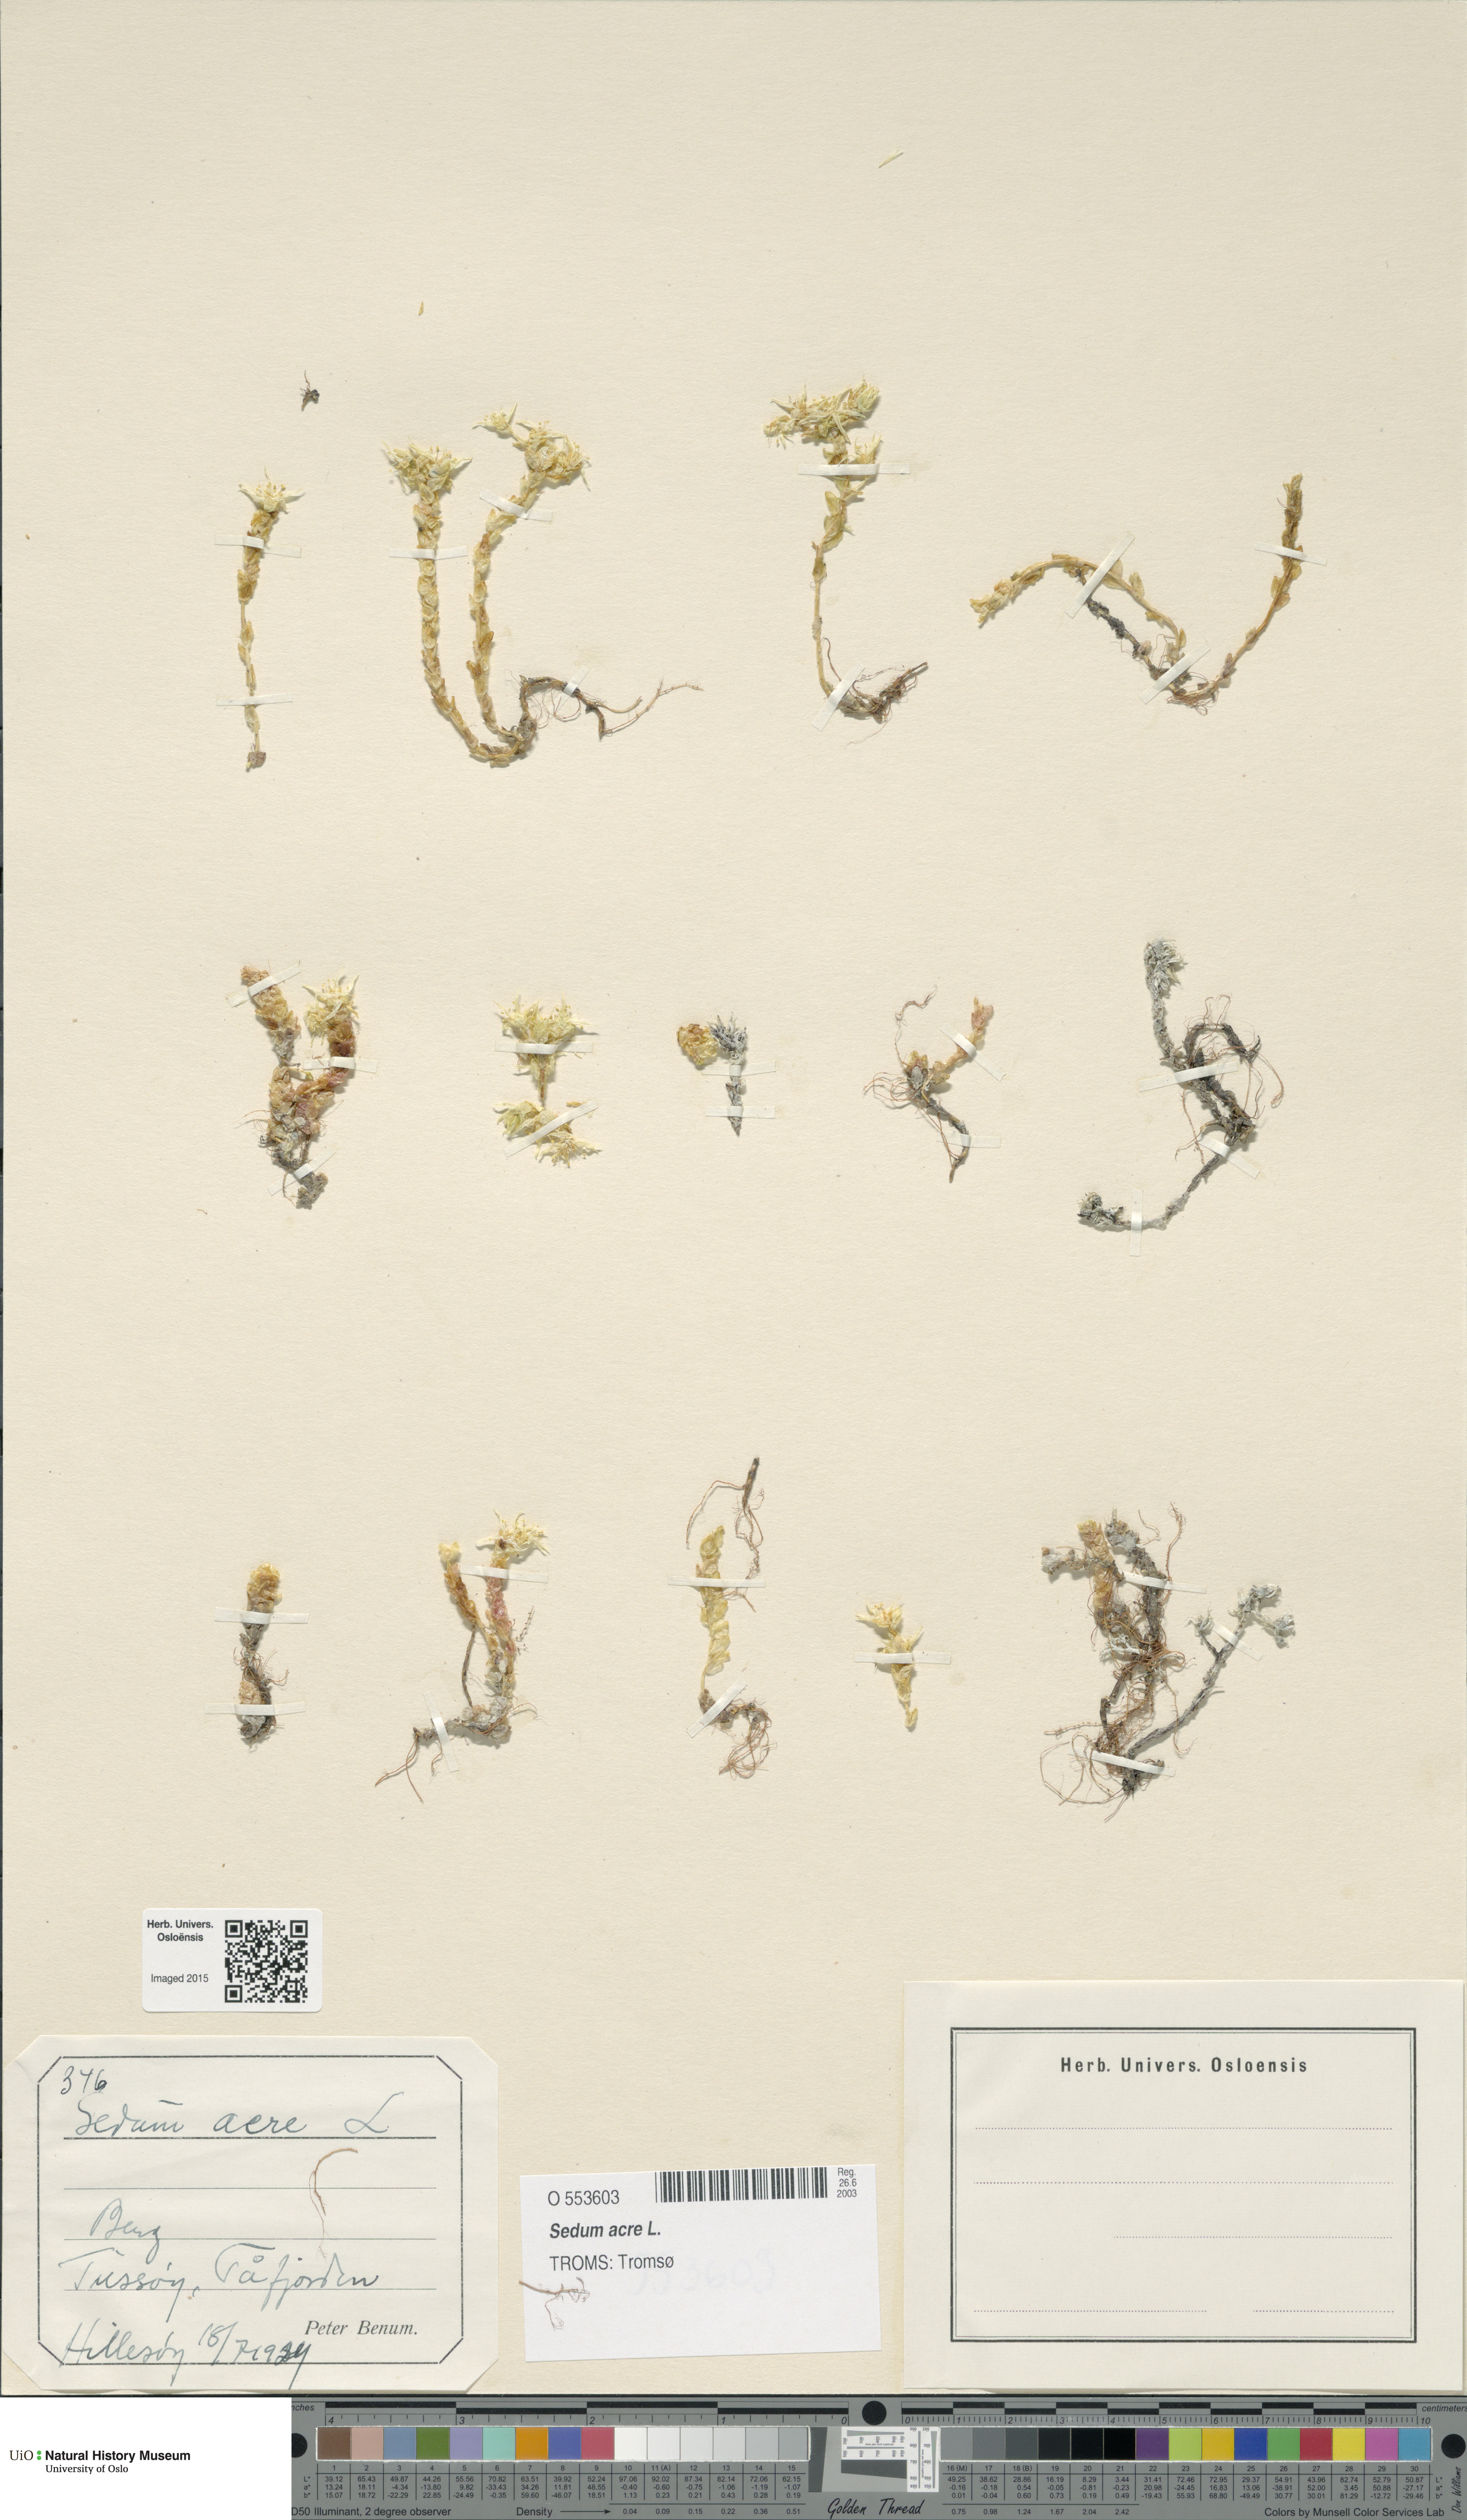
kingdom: Plantae
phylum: Tracheophyta
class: Magnoliopsida
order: Saxifragales
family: Crassulaceae
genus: Sedum
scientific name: Sedum acre
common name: Biting stonecrop
